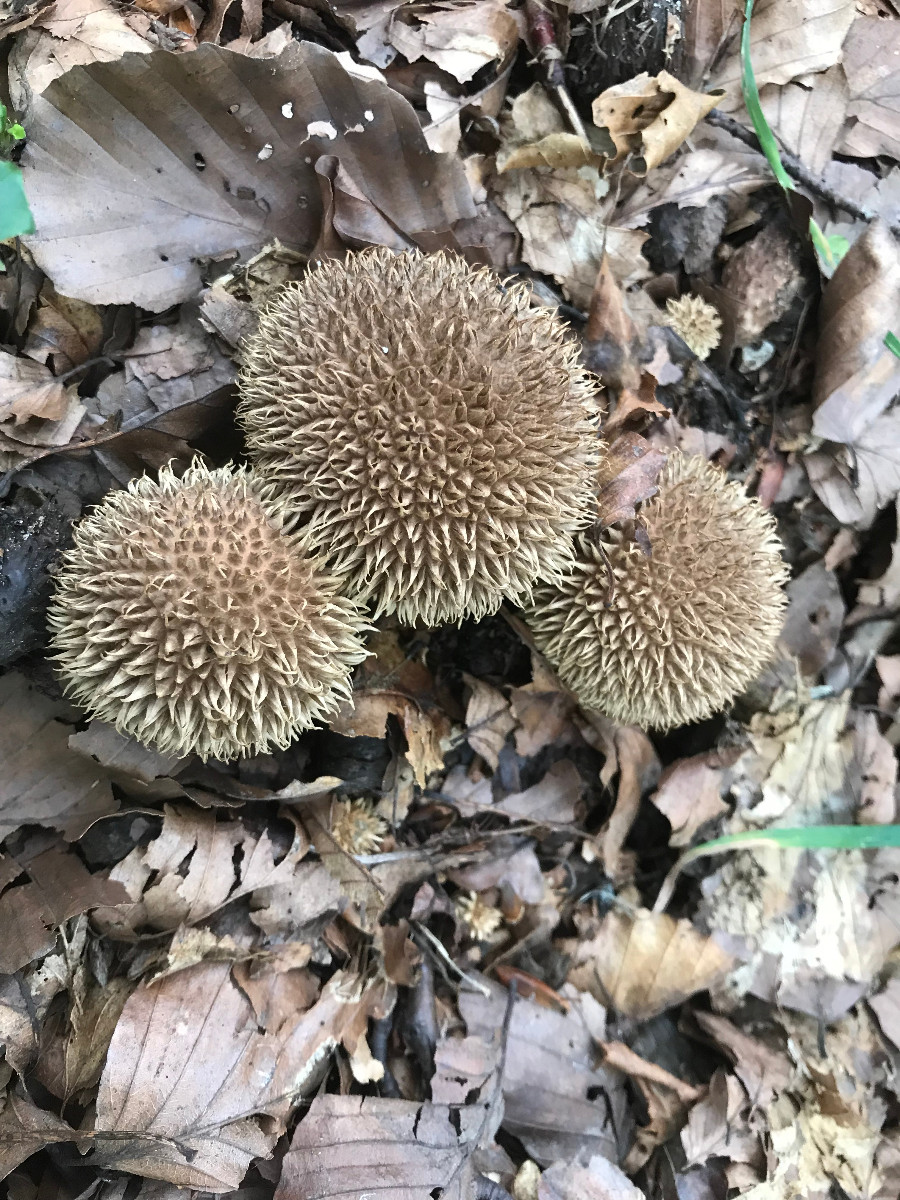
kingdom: Fungi
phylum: Basidiomycota
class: Agaricomycetes
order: Agaricales
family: Lycoperdaceae
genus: Lycoperdon
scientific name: Lycoperdon echinatum
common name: pindsvine-støvbold
